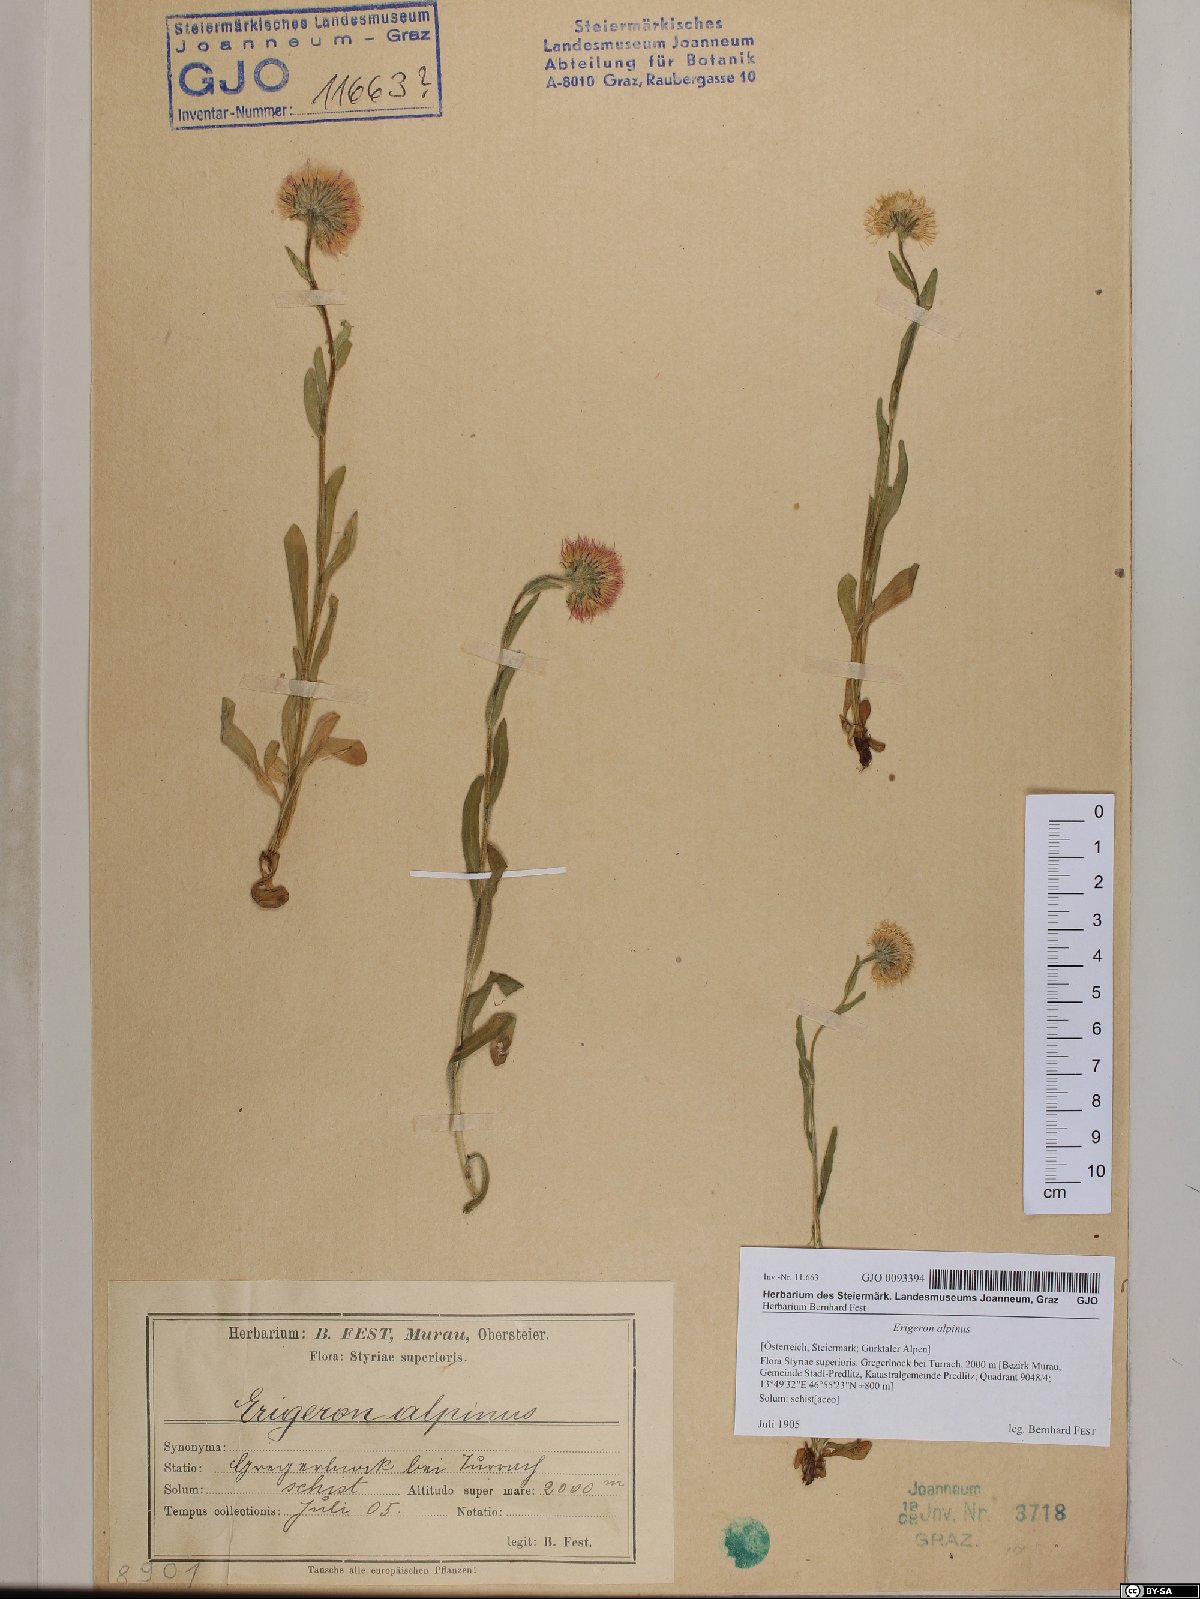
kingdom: Plantae
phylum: Tracheophyta
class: Magnoliopsida
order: Asterales
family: Asteraceae
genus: Erigeron
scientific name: Erigeron alpinus
